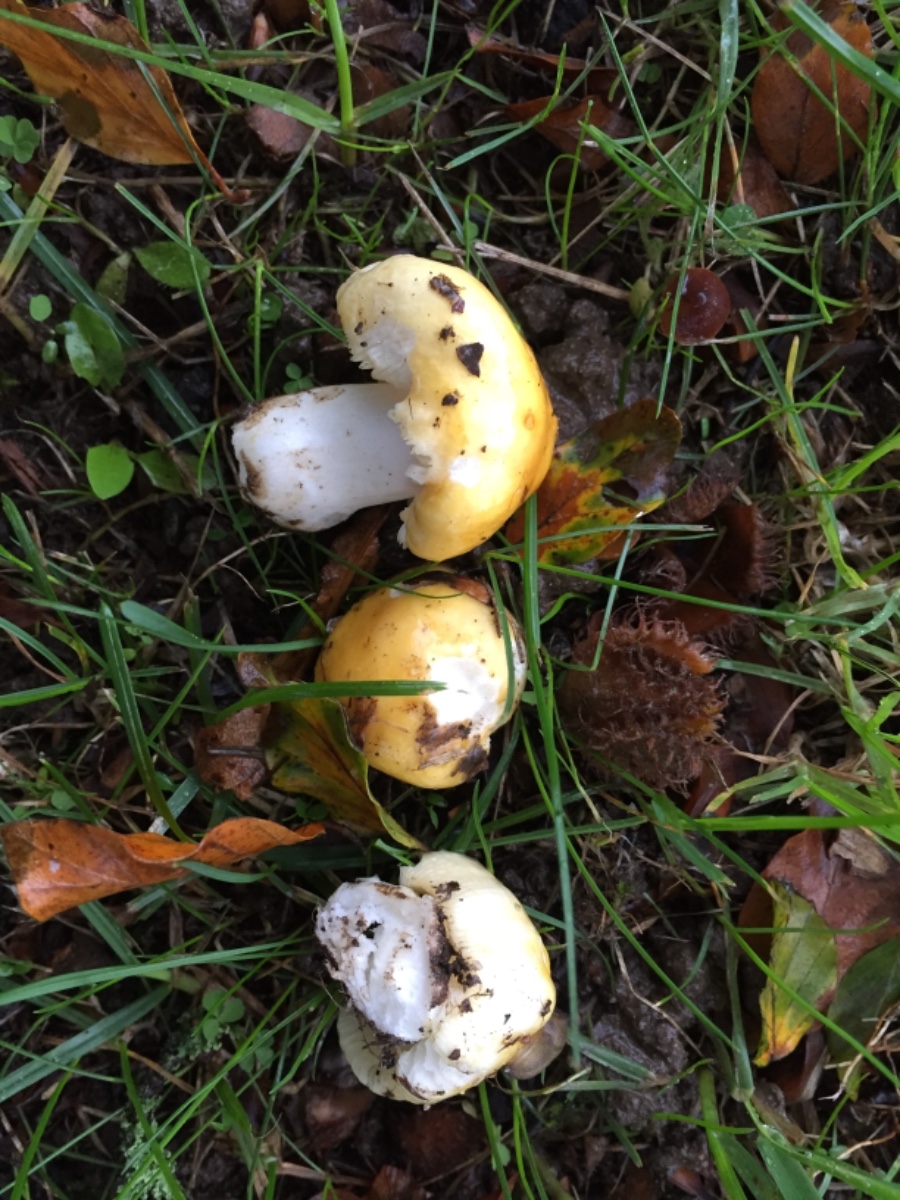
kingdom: Fungi
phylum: Basidiomycota
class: Agaricomycetes
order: Russulales
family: Russulaceae
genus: Russula
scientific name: Russula solaris
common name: sol-skørhat
